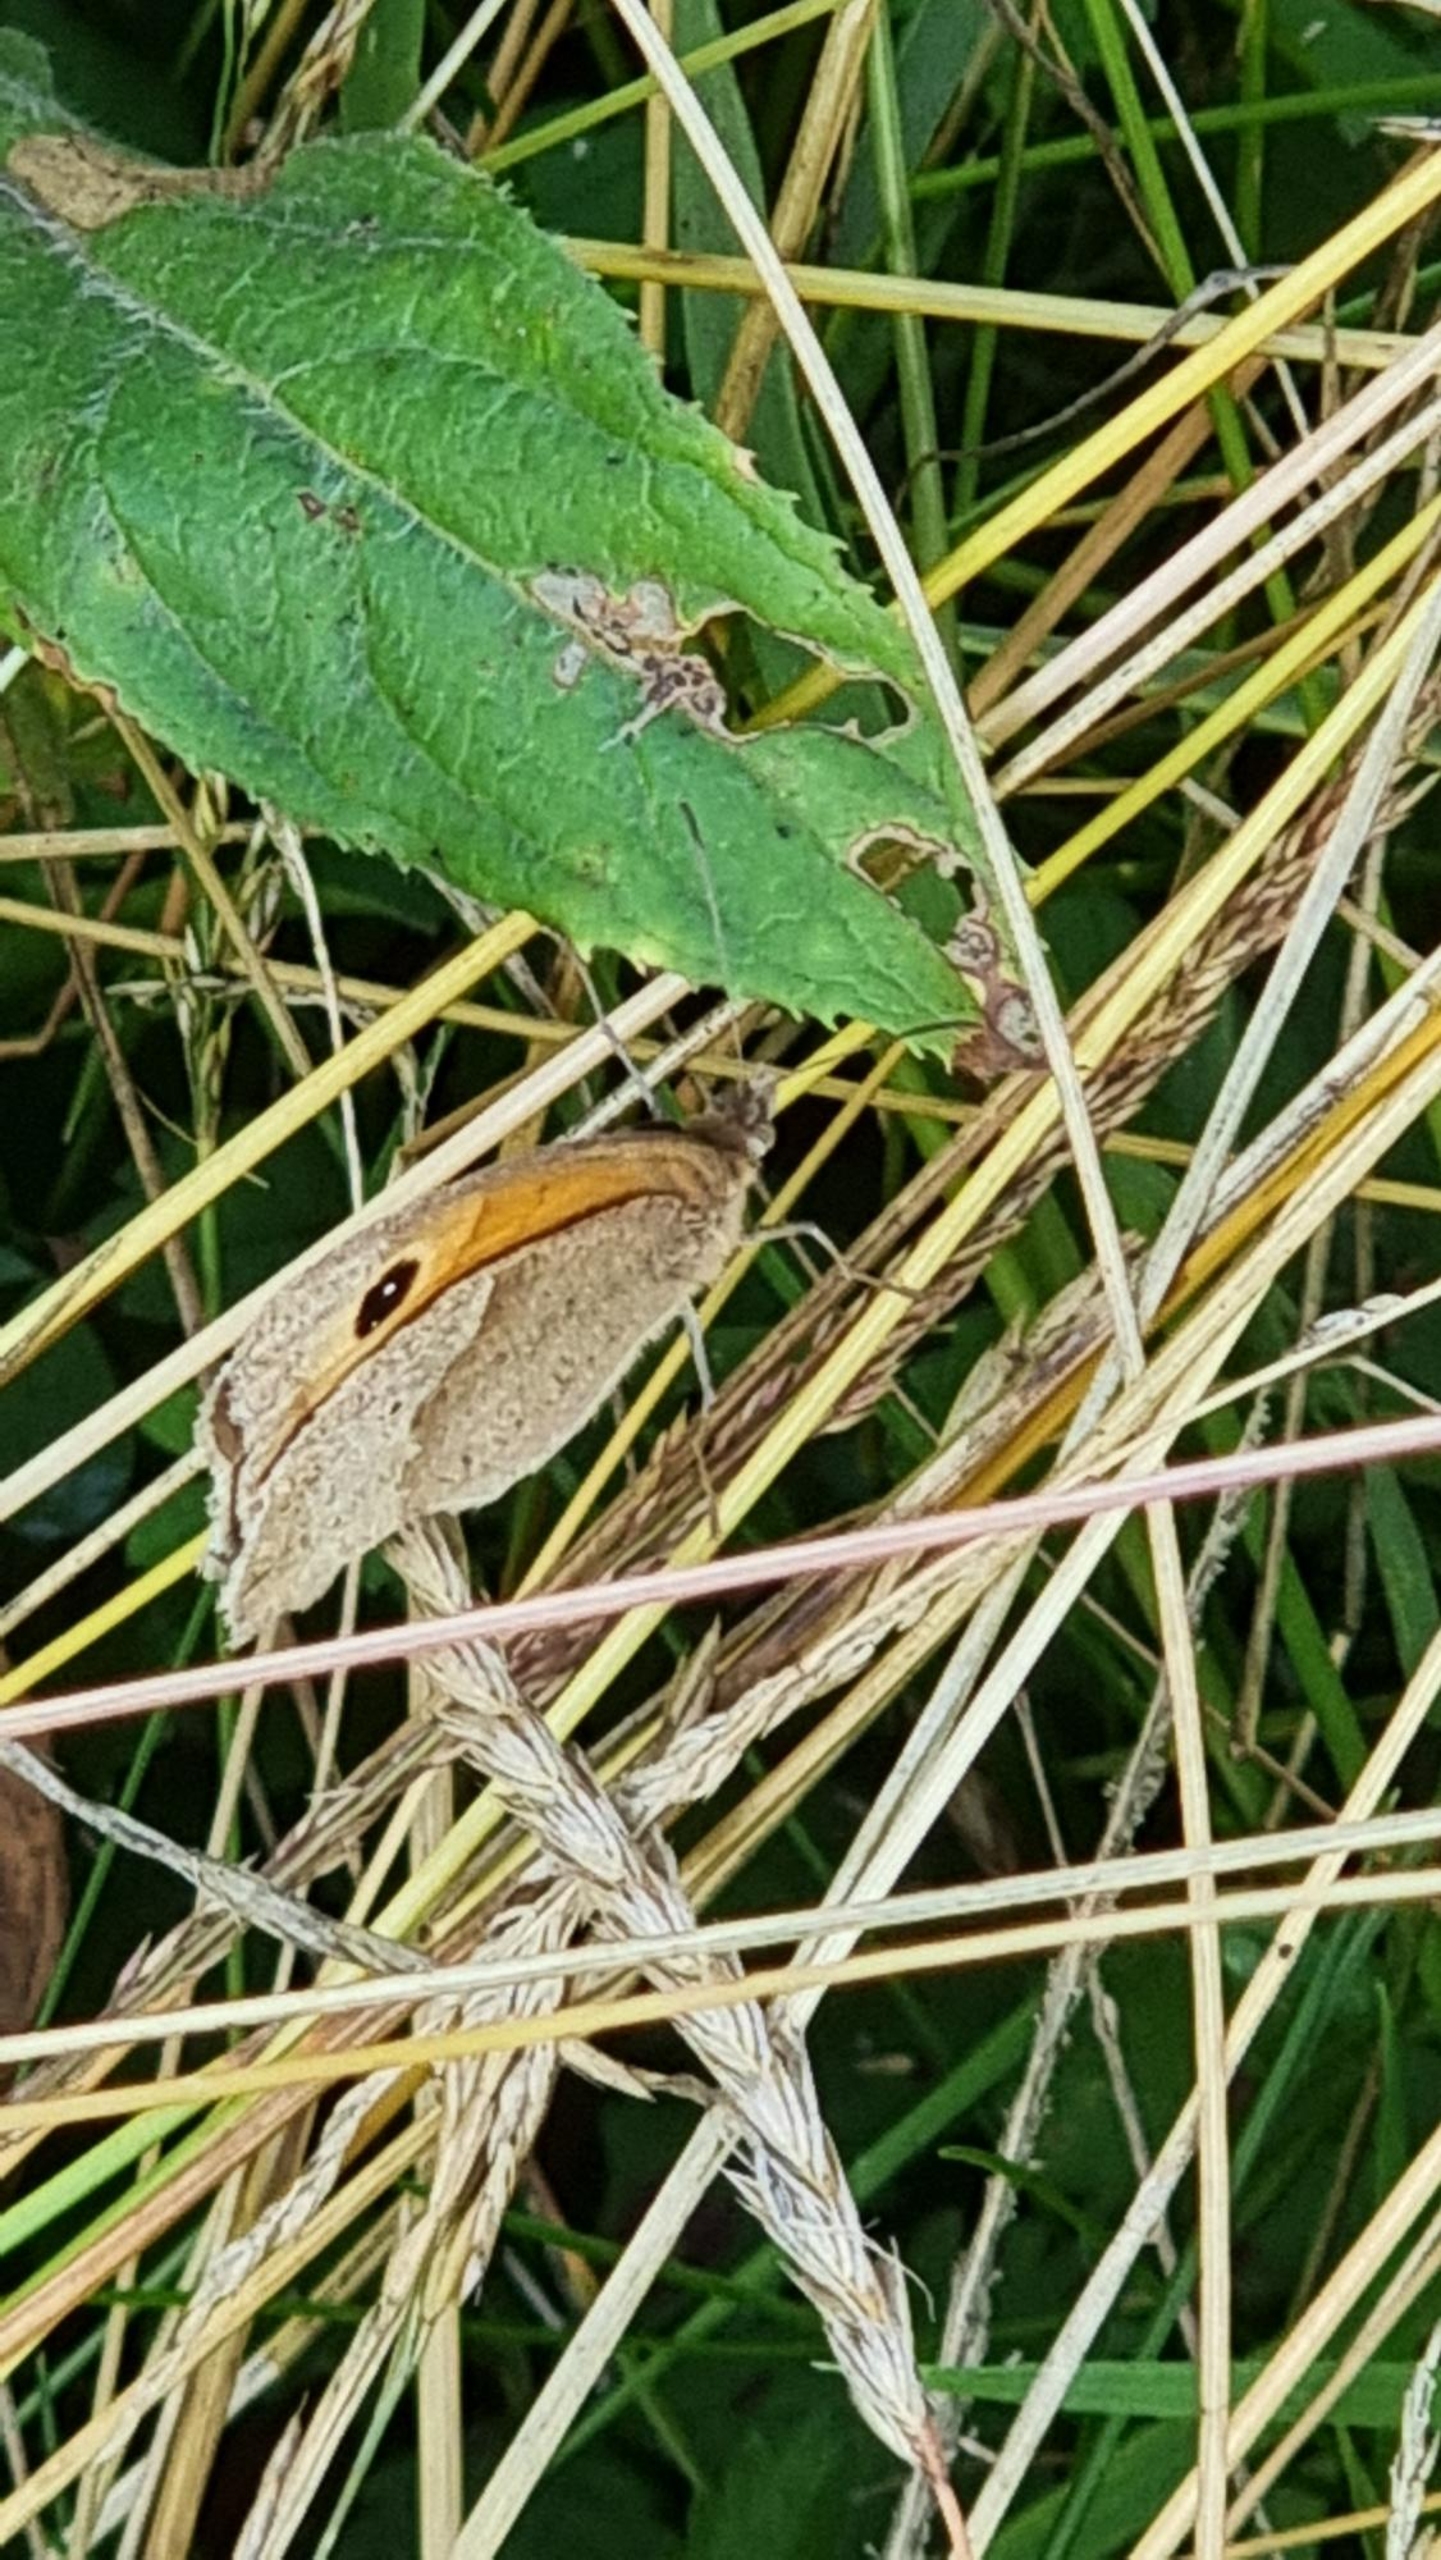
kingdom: Animalia
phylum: Arthropoda
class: Insecta
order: Lepidoptera
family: Nymphalidae
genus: Maniola
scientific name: Maniola jurtina
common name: Græsrandøje
